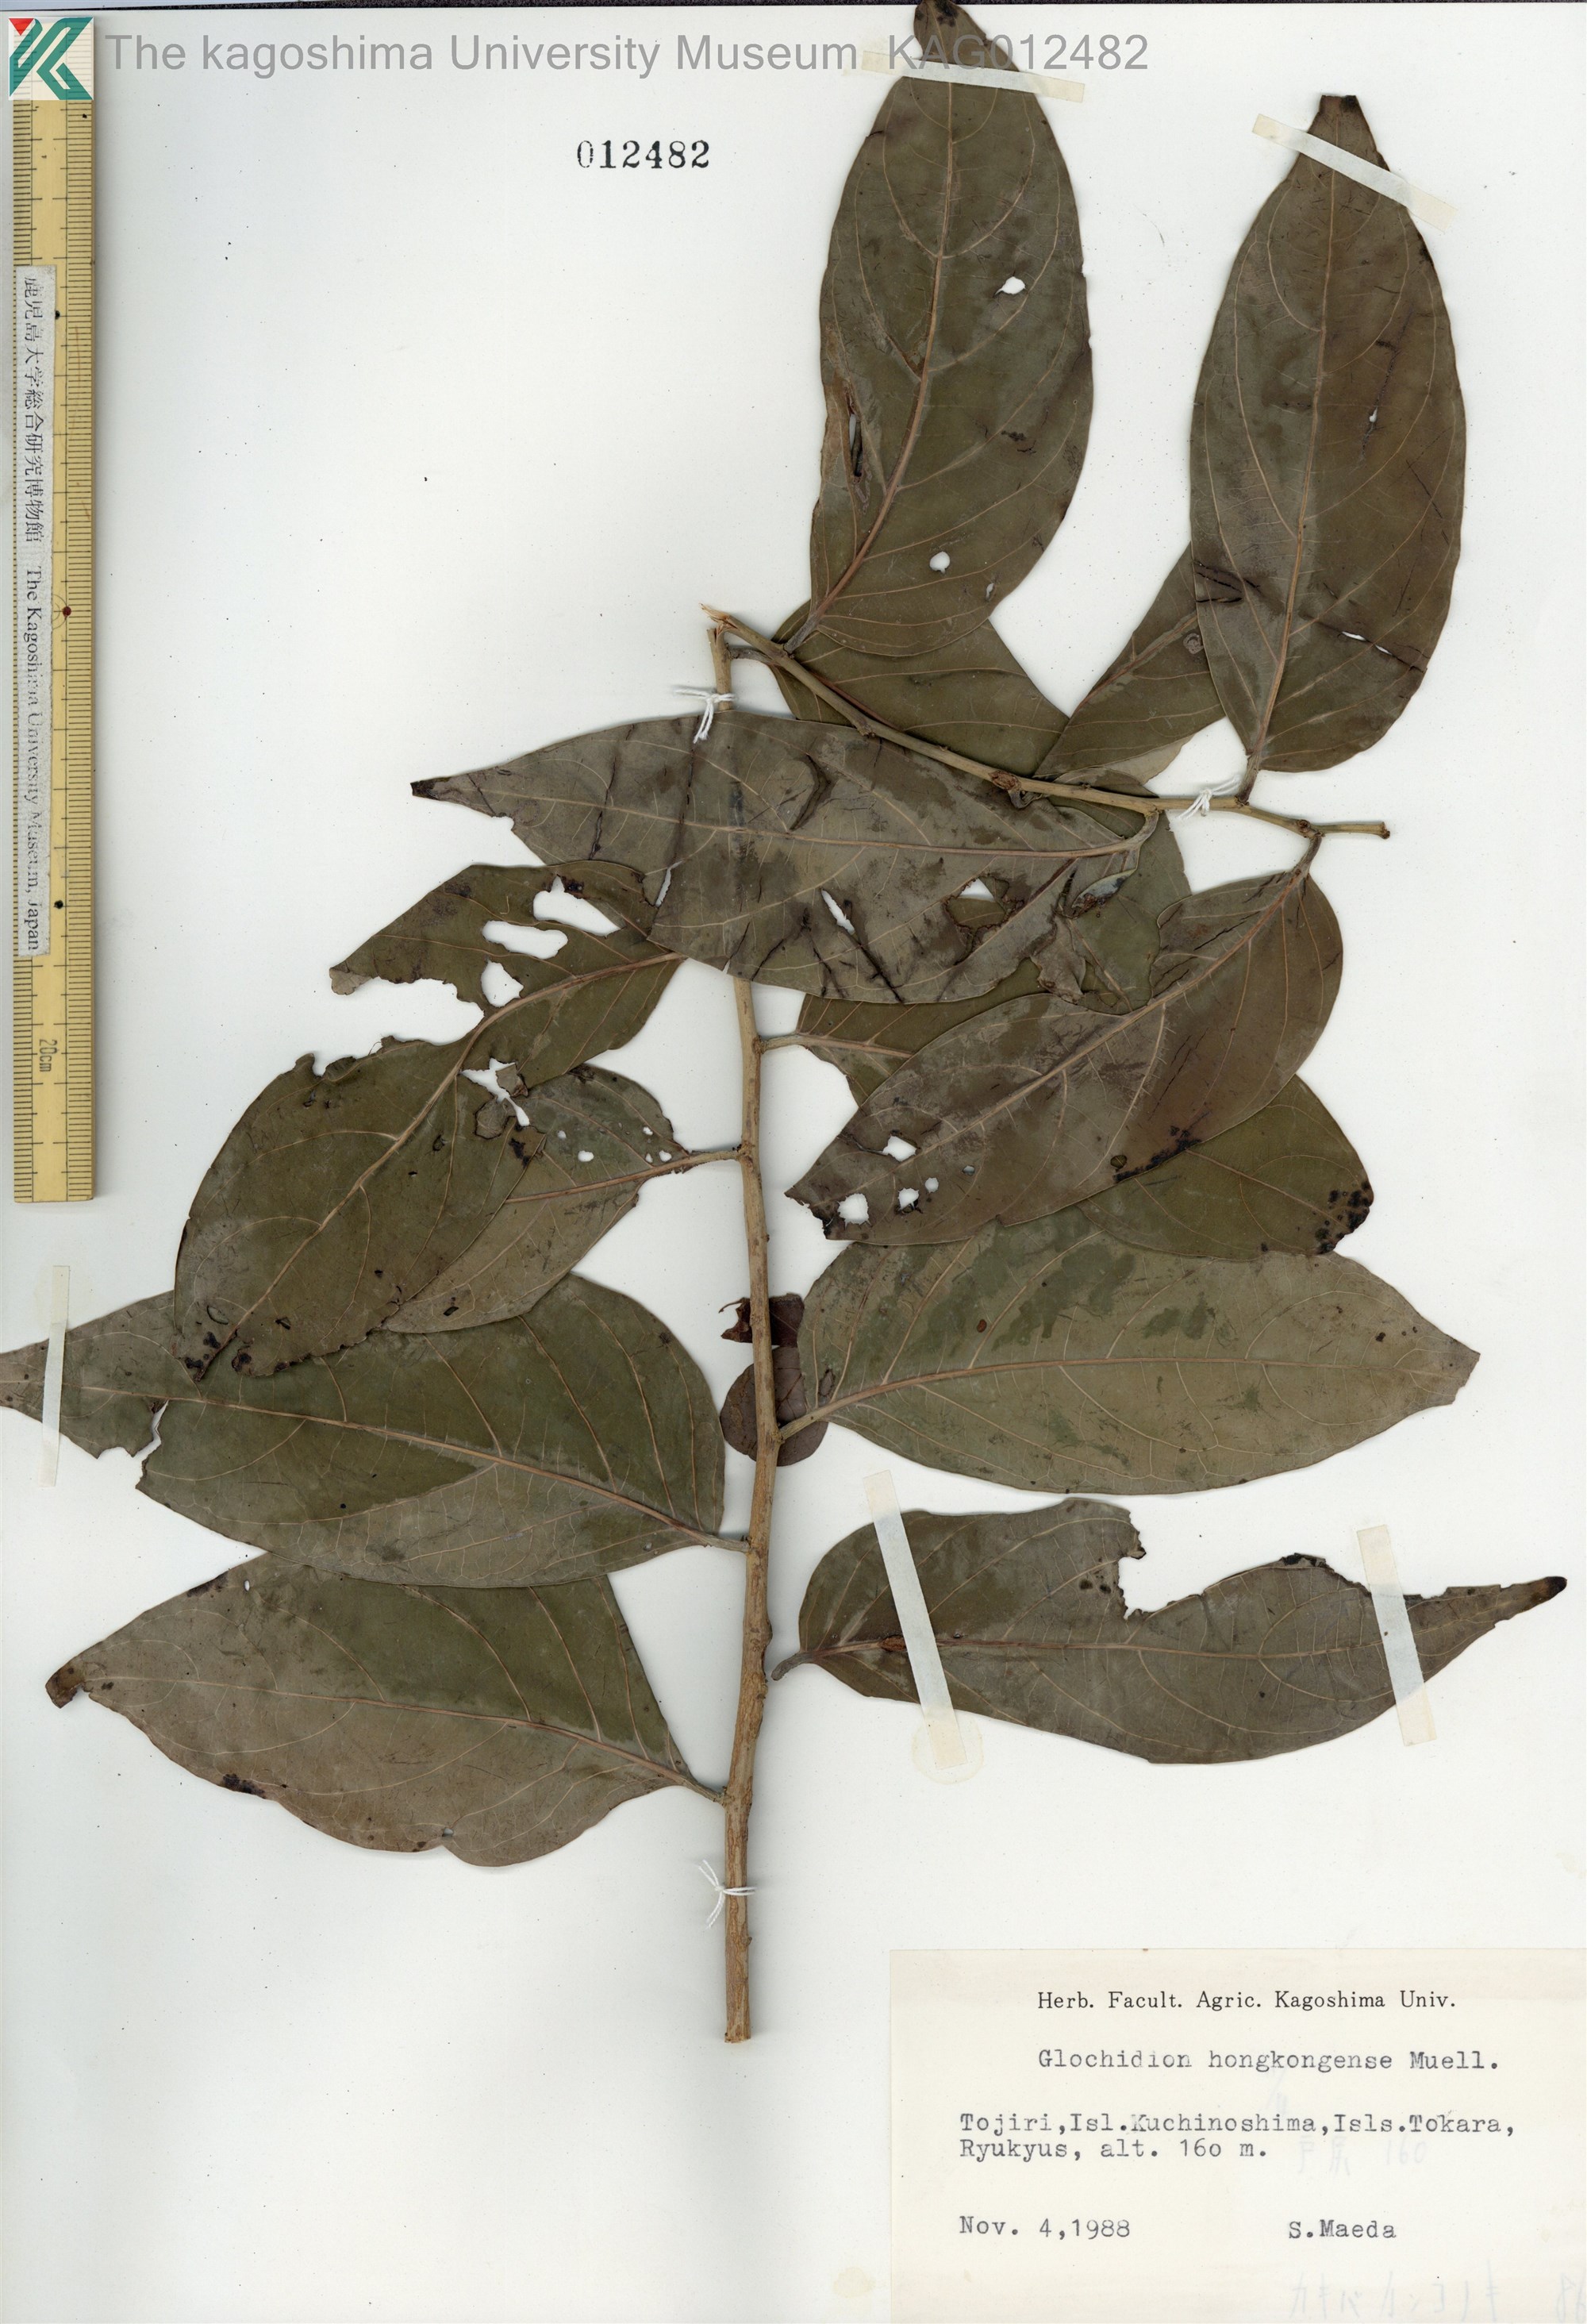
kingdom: Plantae
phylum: Tracheophyta
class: Magnoliopsida
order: Malpighiales
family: Phyllanthaceae
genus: Glochidion
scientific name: Glochidion zeylanicum
